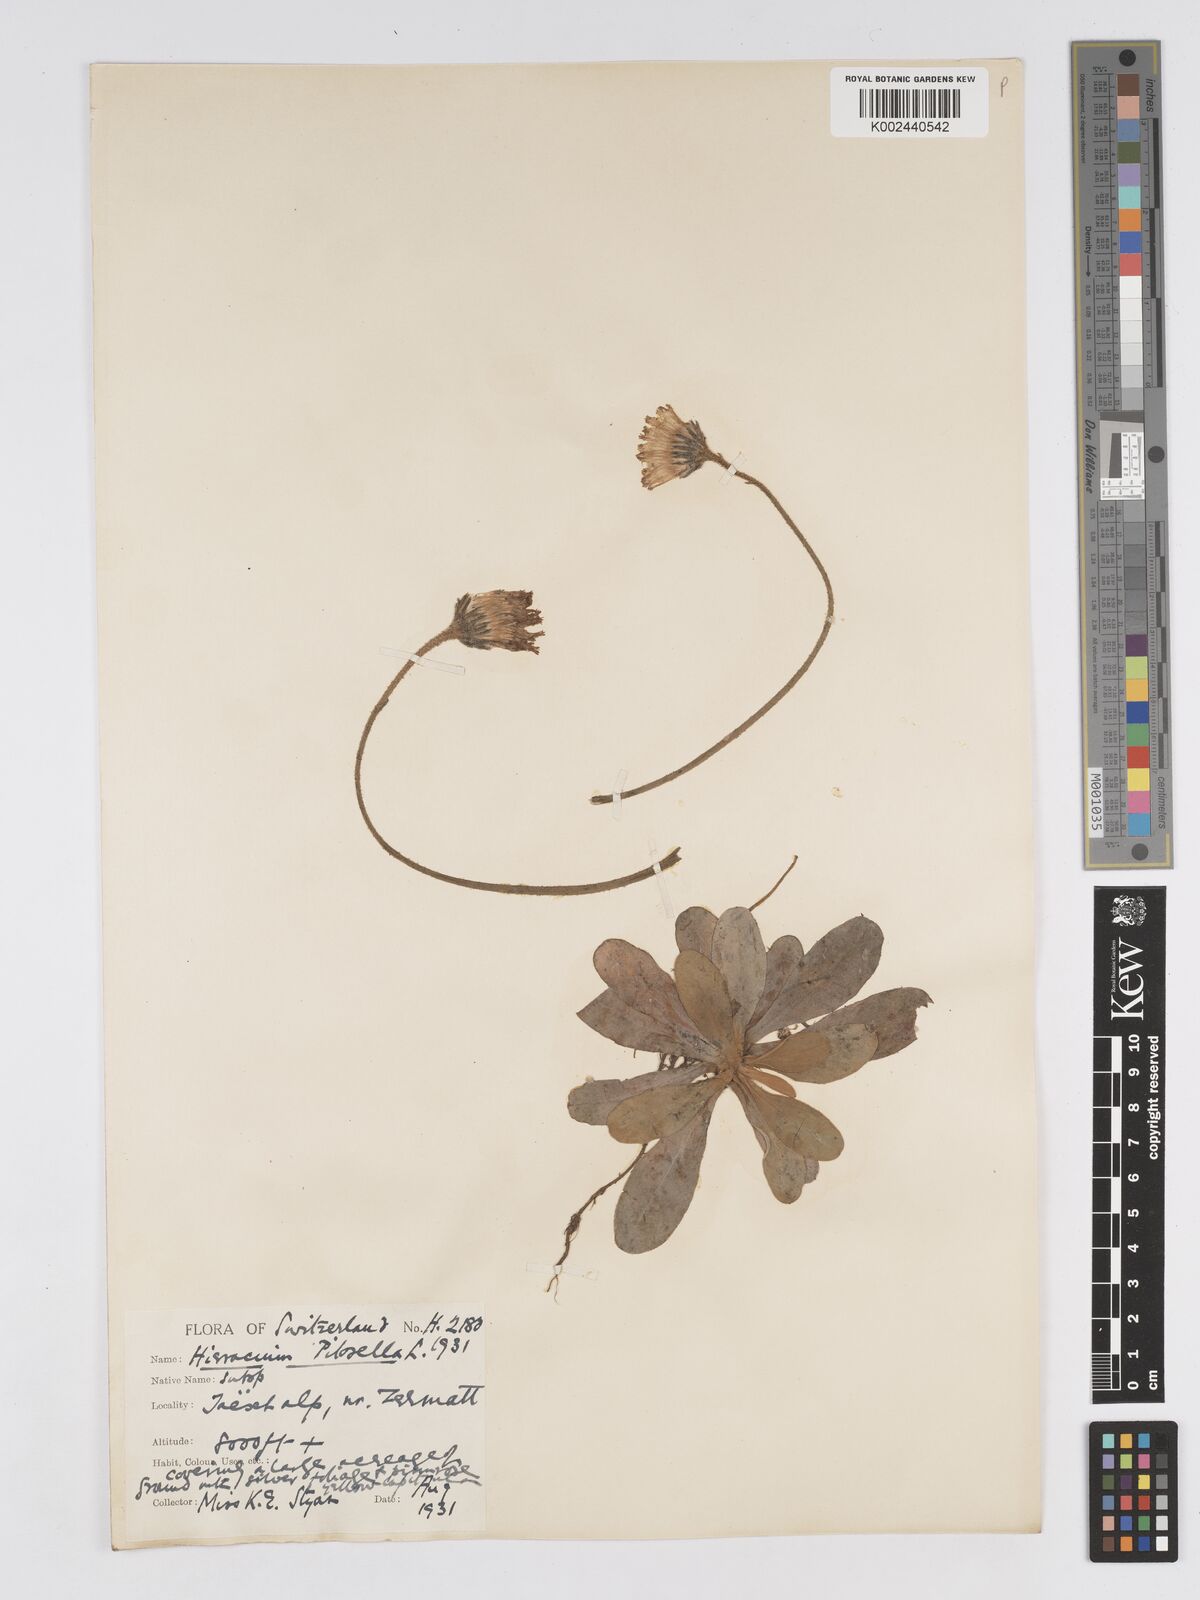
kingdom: Plantae
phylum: Tracheophyta
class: Magnoliopsida
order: Asterales
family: Asteraceae
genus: Pilosella
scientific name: Pilosella velutina
